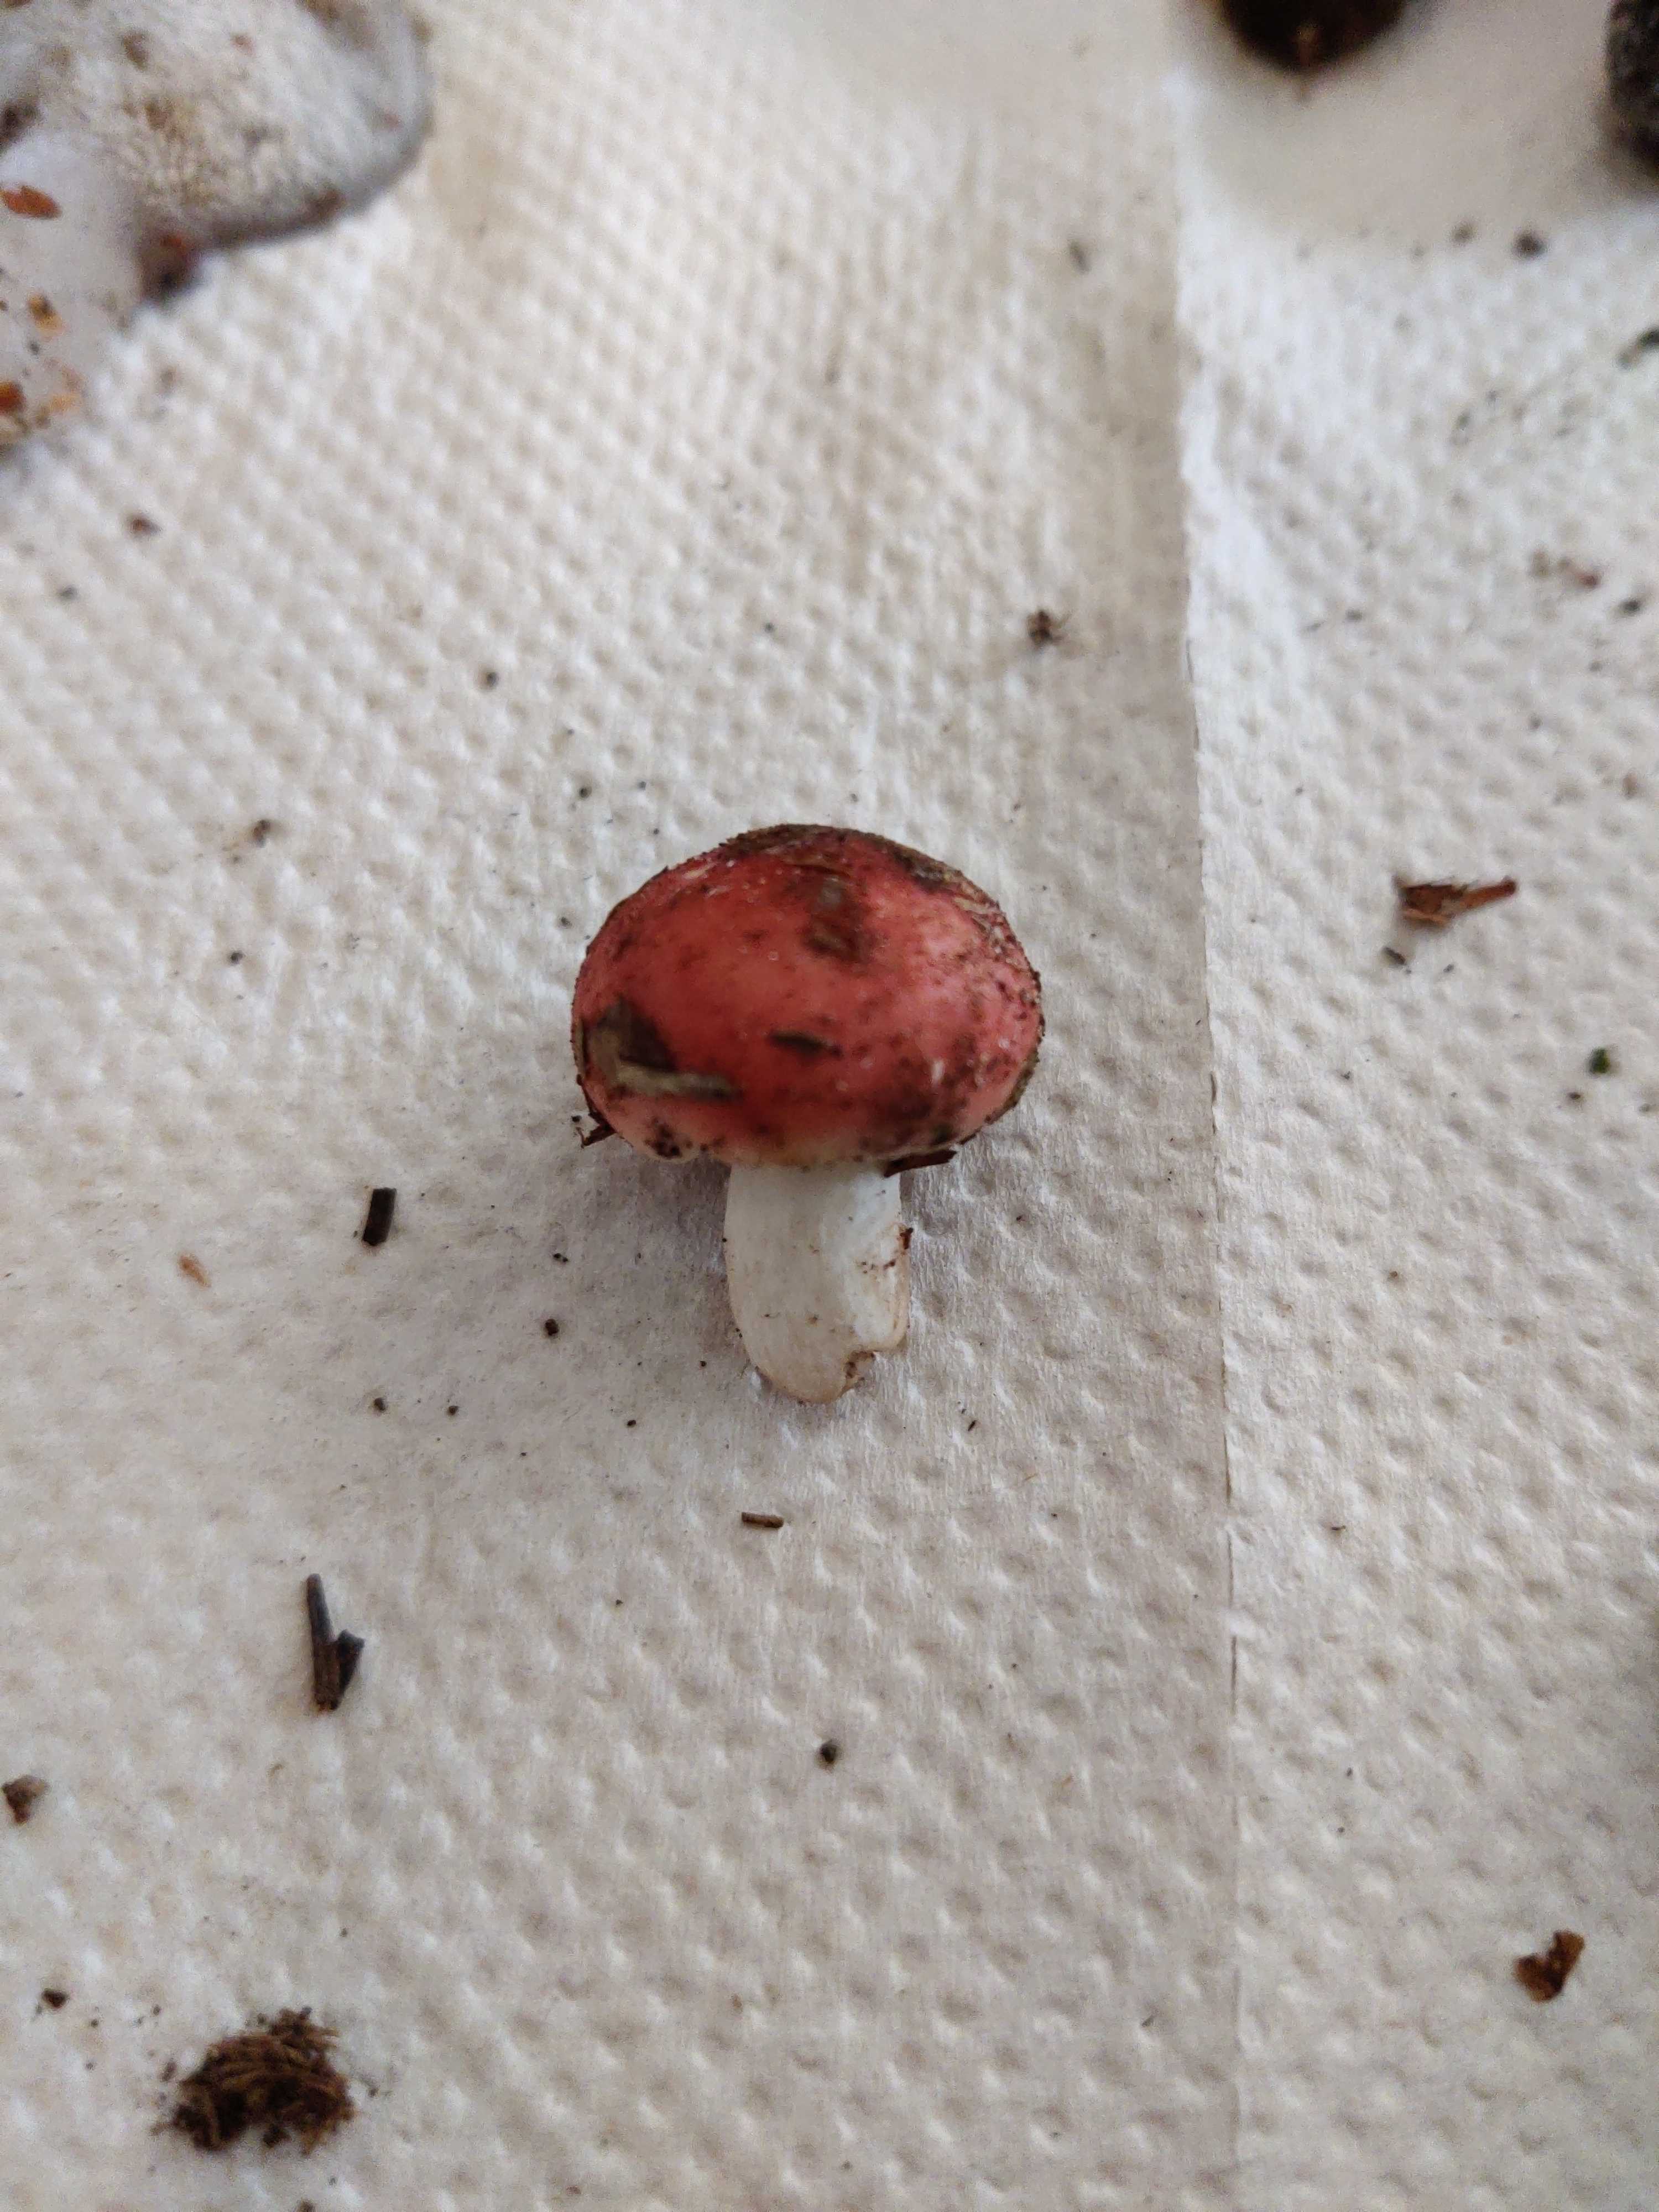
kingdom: Fungi
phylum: Basidiomycota
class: Agaricomycetes
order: Russulales
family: Russulaceae
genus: Russula
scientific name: Russula
